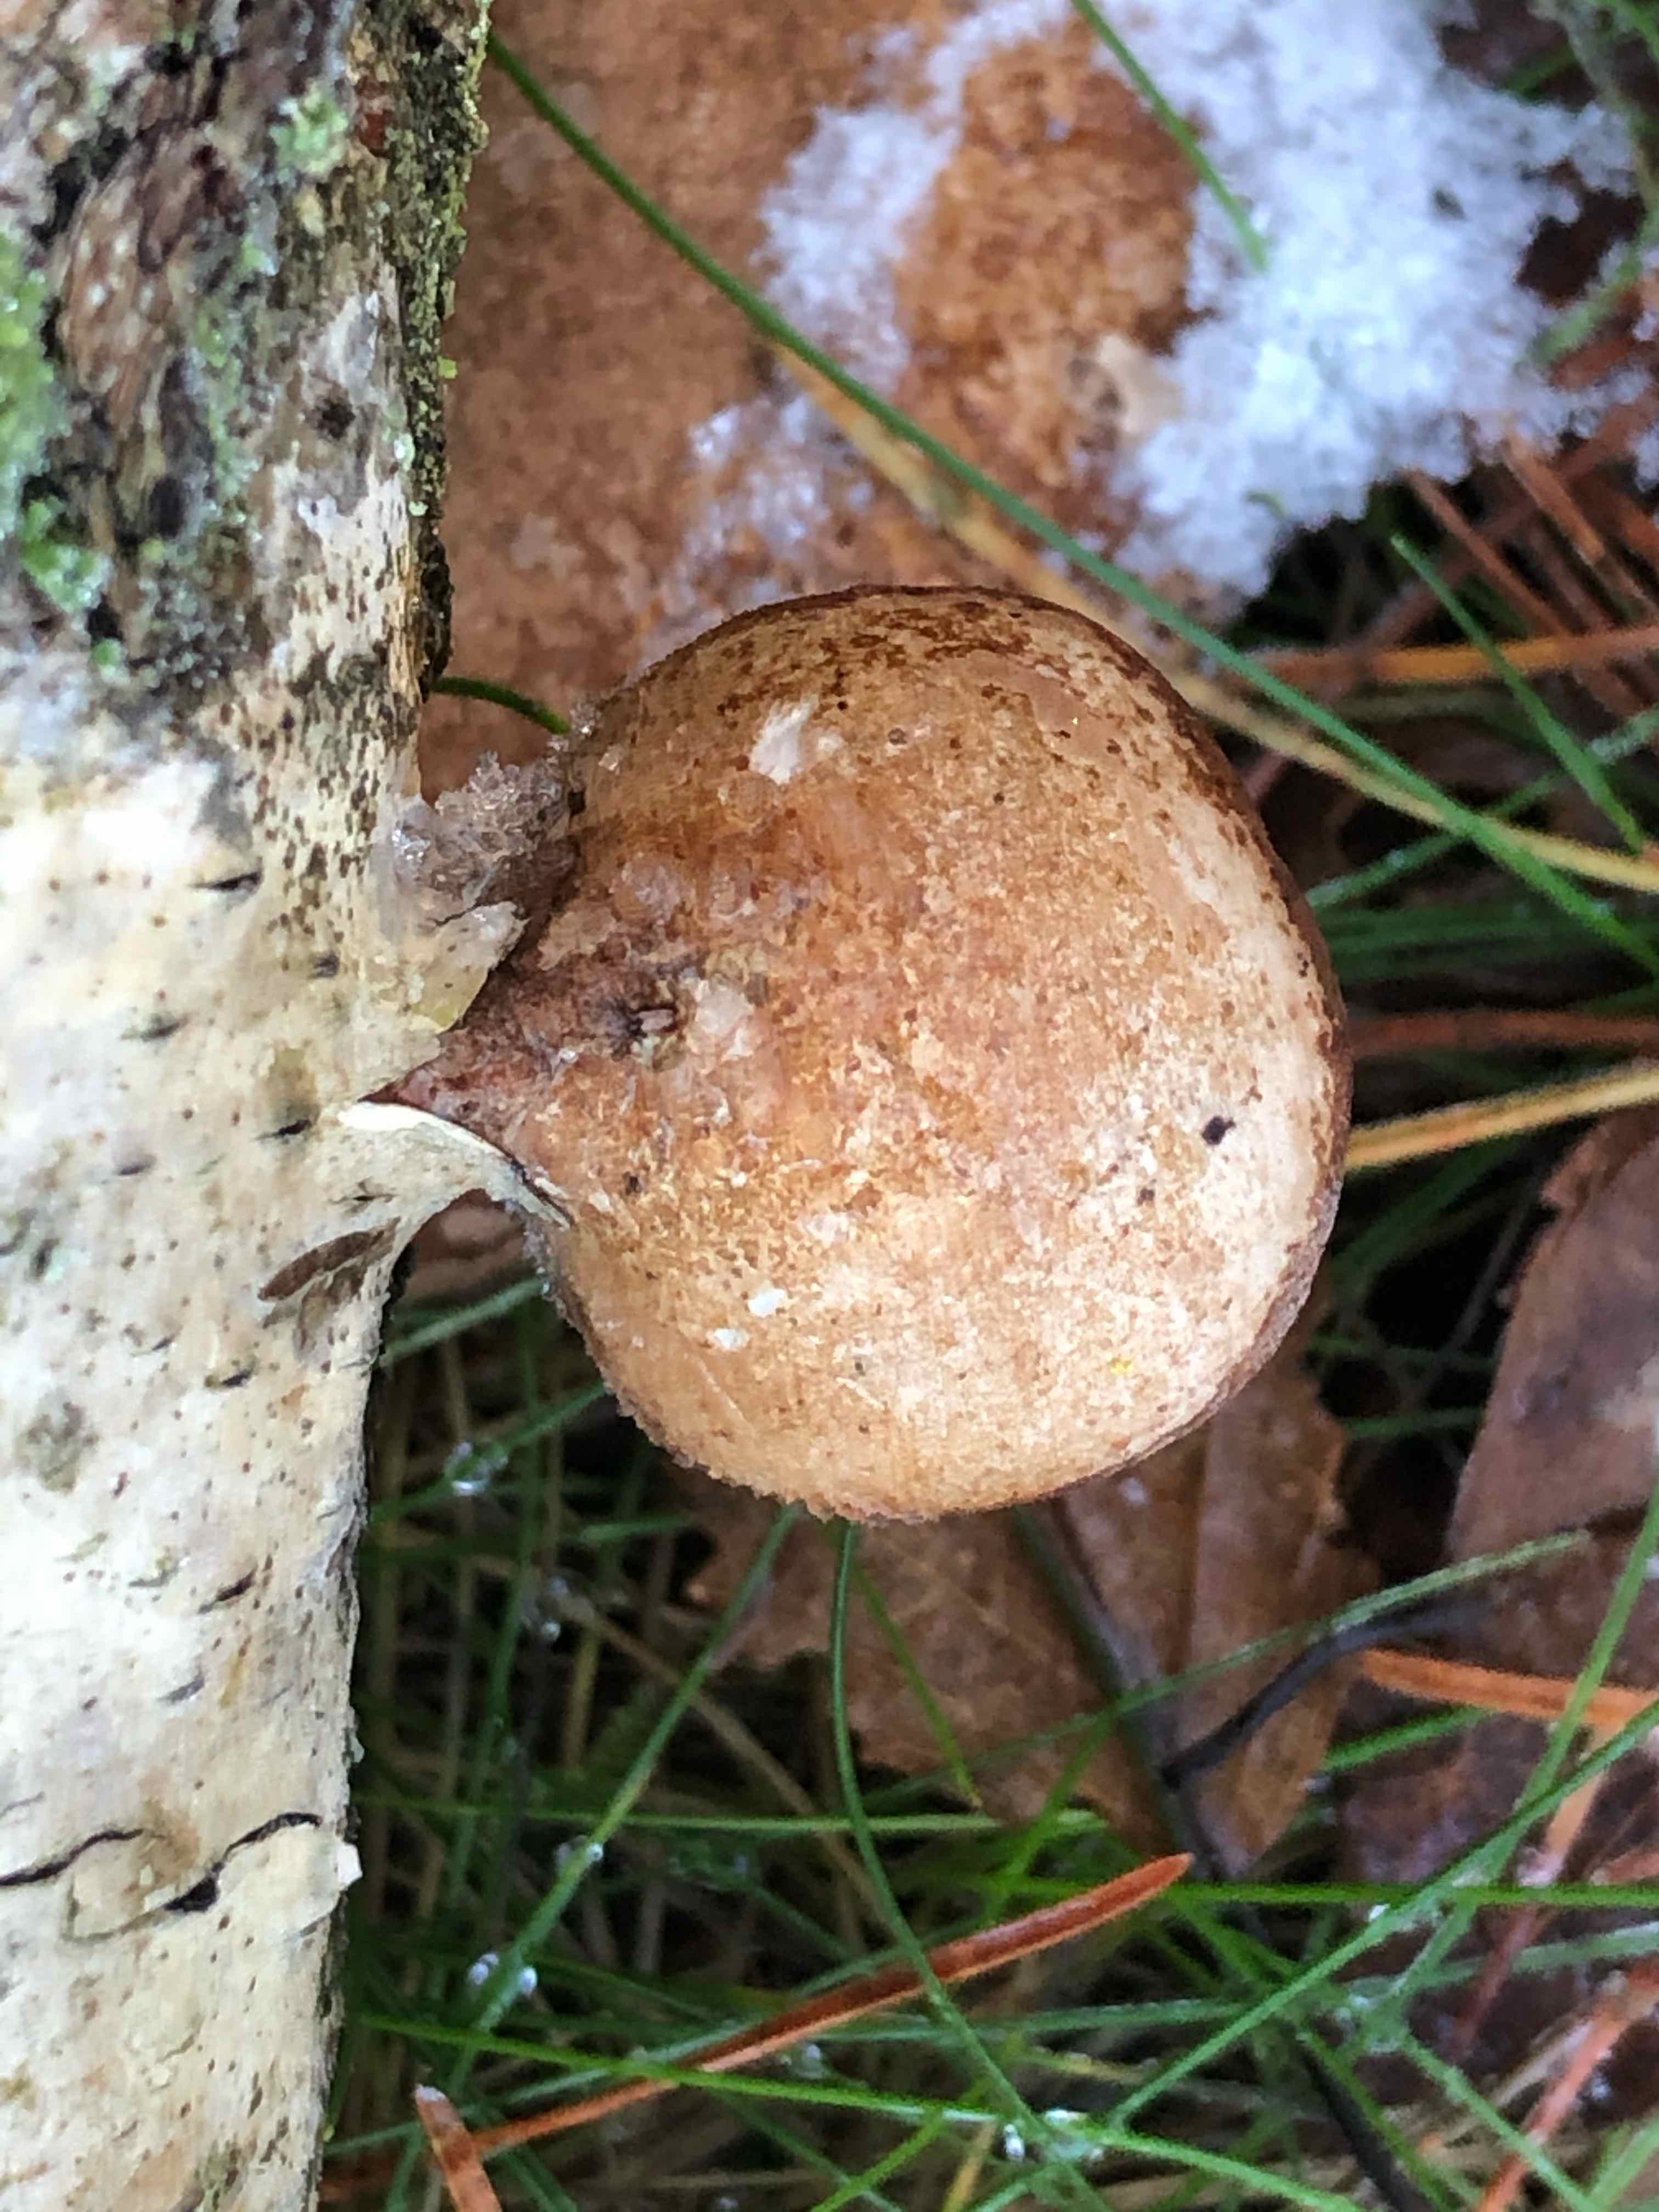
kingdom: Fungi
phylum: Basidiomycota
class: Agaricomycetes
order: Polyporales
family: Fomitopsidaceae
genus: Fomitopsis
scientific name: Fomitopsis betulina
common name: birkeporesvamp
